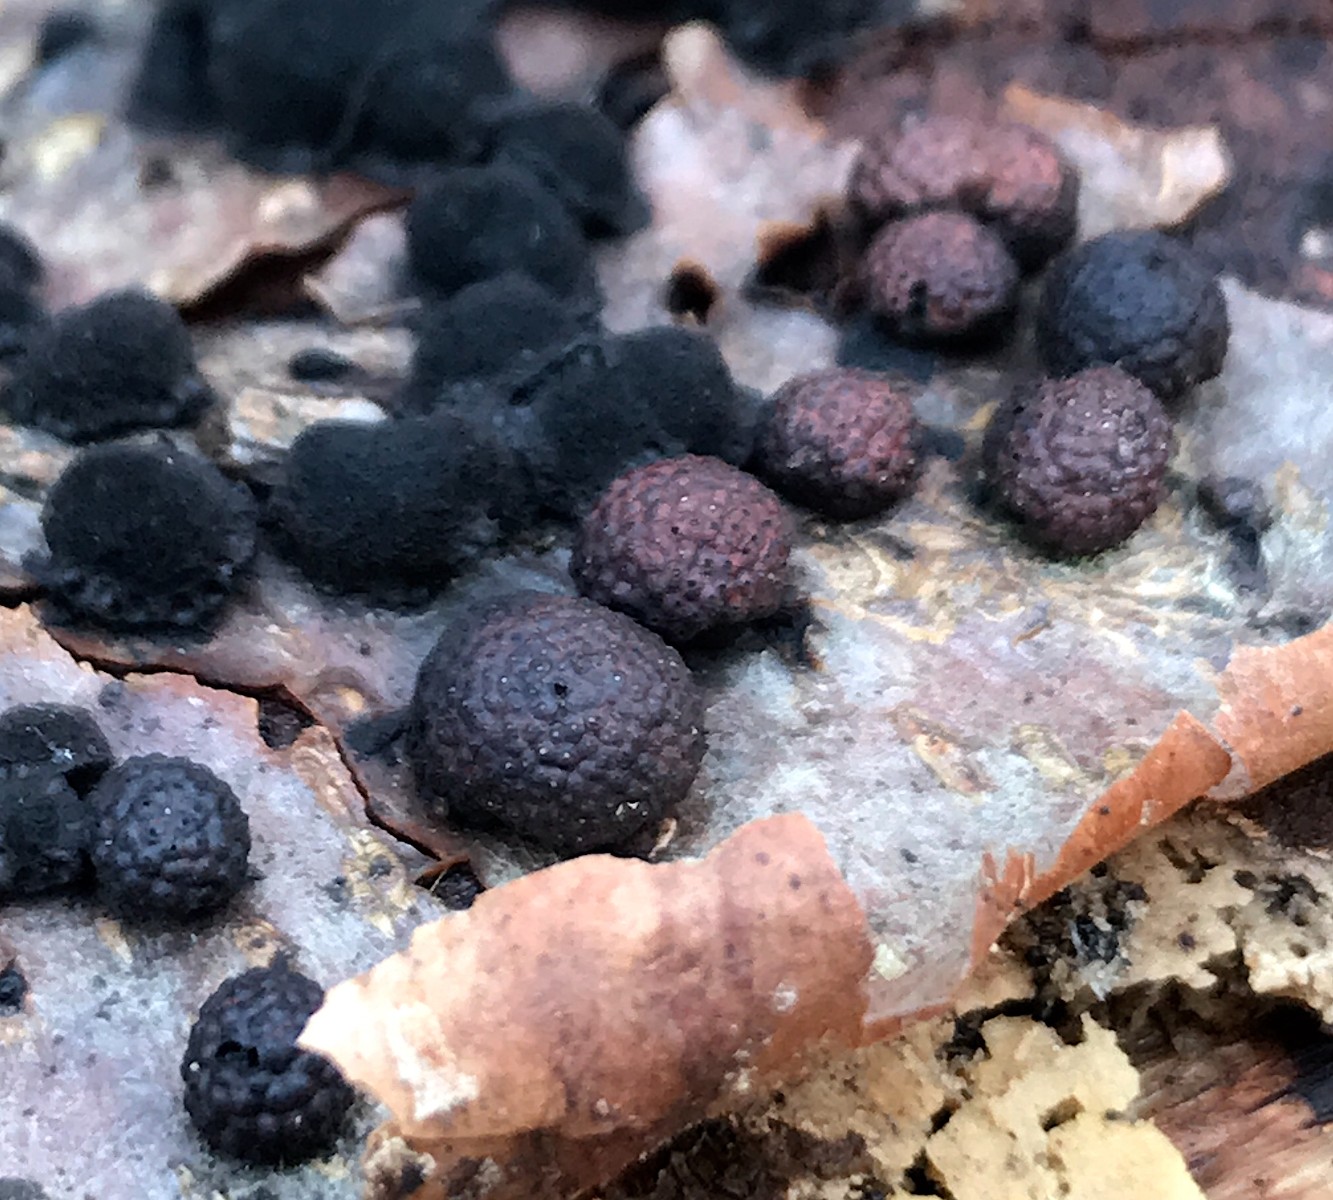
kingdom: Fungi
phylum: Ascomycota
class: Sordariomycetes
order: Xylariales
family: Hypoxylaceae
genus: Hypoxylon
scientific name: Hypoxylon fragiforme
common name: kuljordbær
